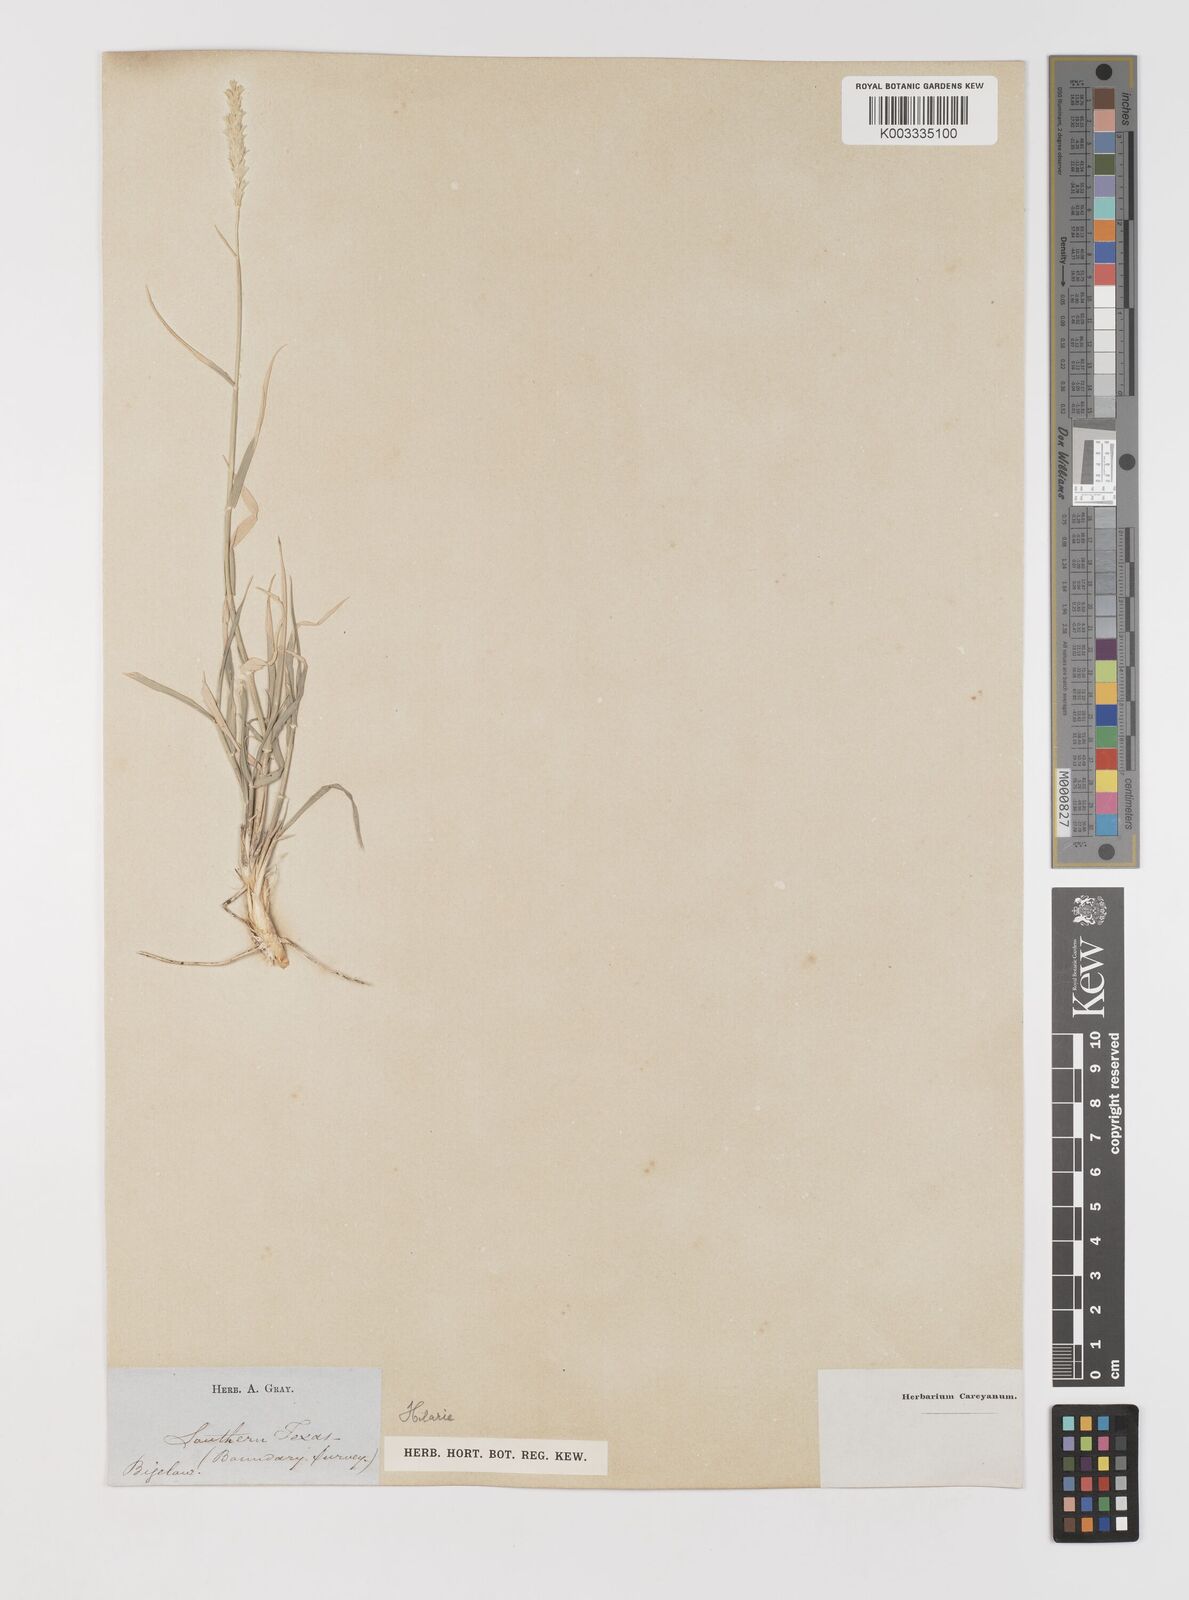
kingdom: Plantae
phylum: Tracheophyta
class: Liliopsida
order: Poales
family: Poaceae
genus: Hilaria
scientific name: Hilaria mutica
